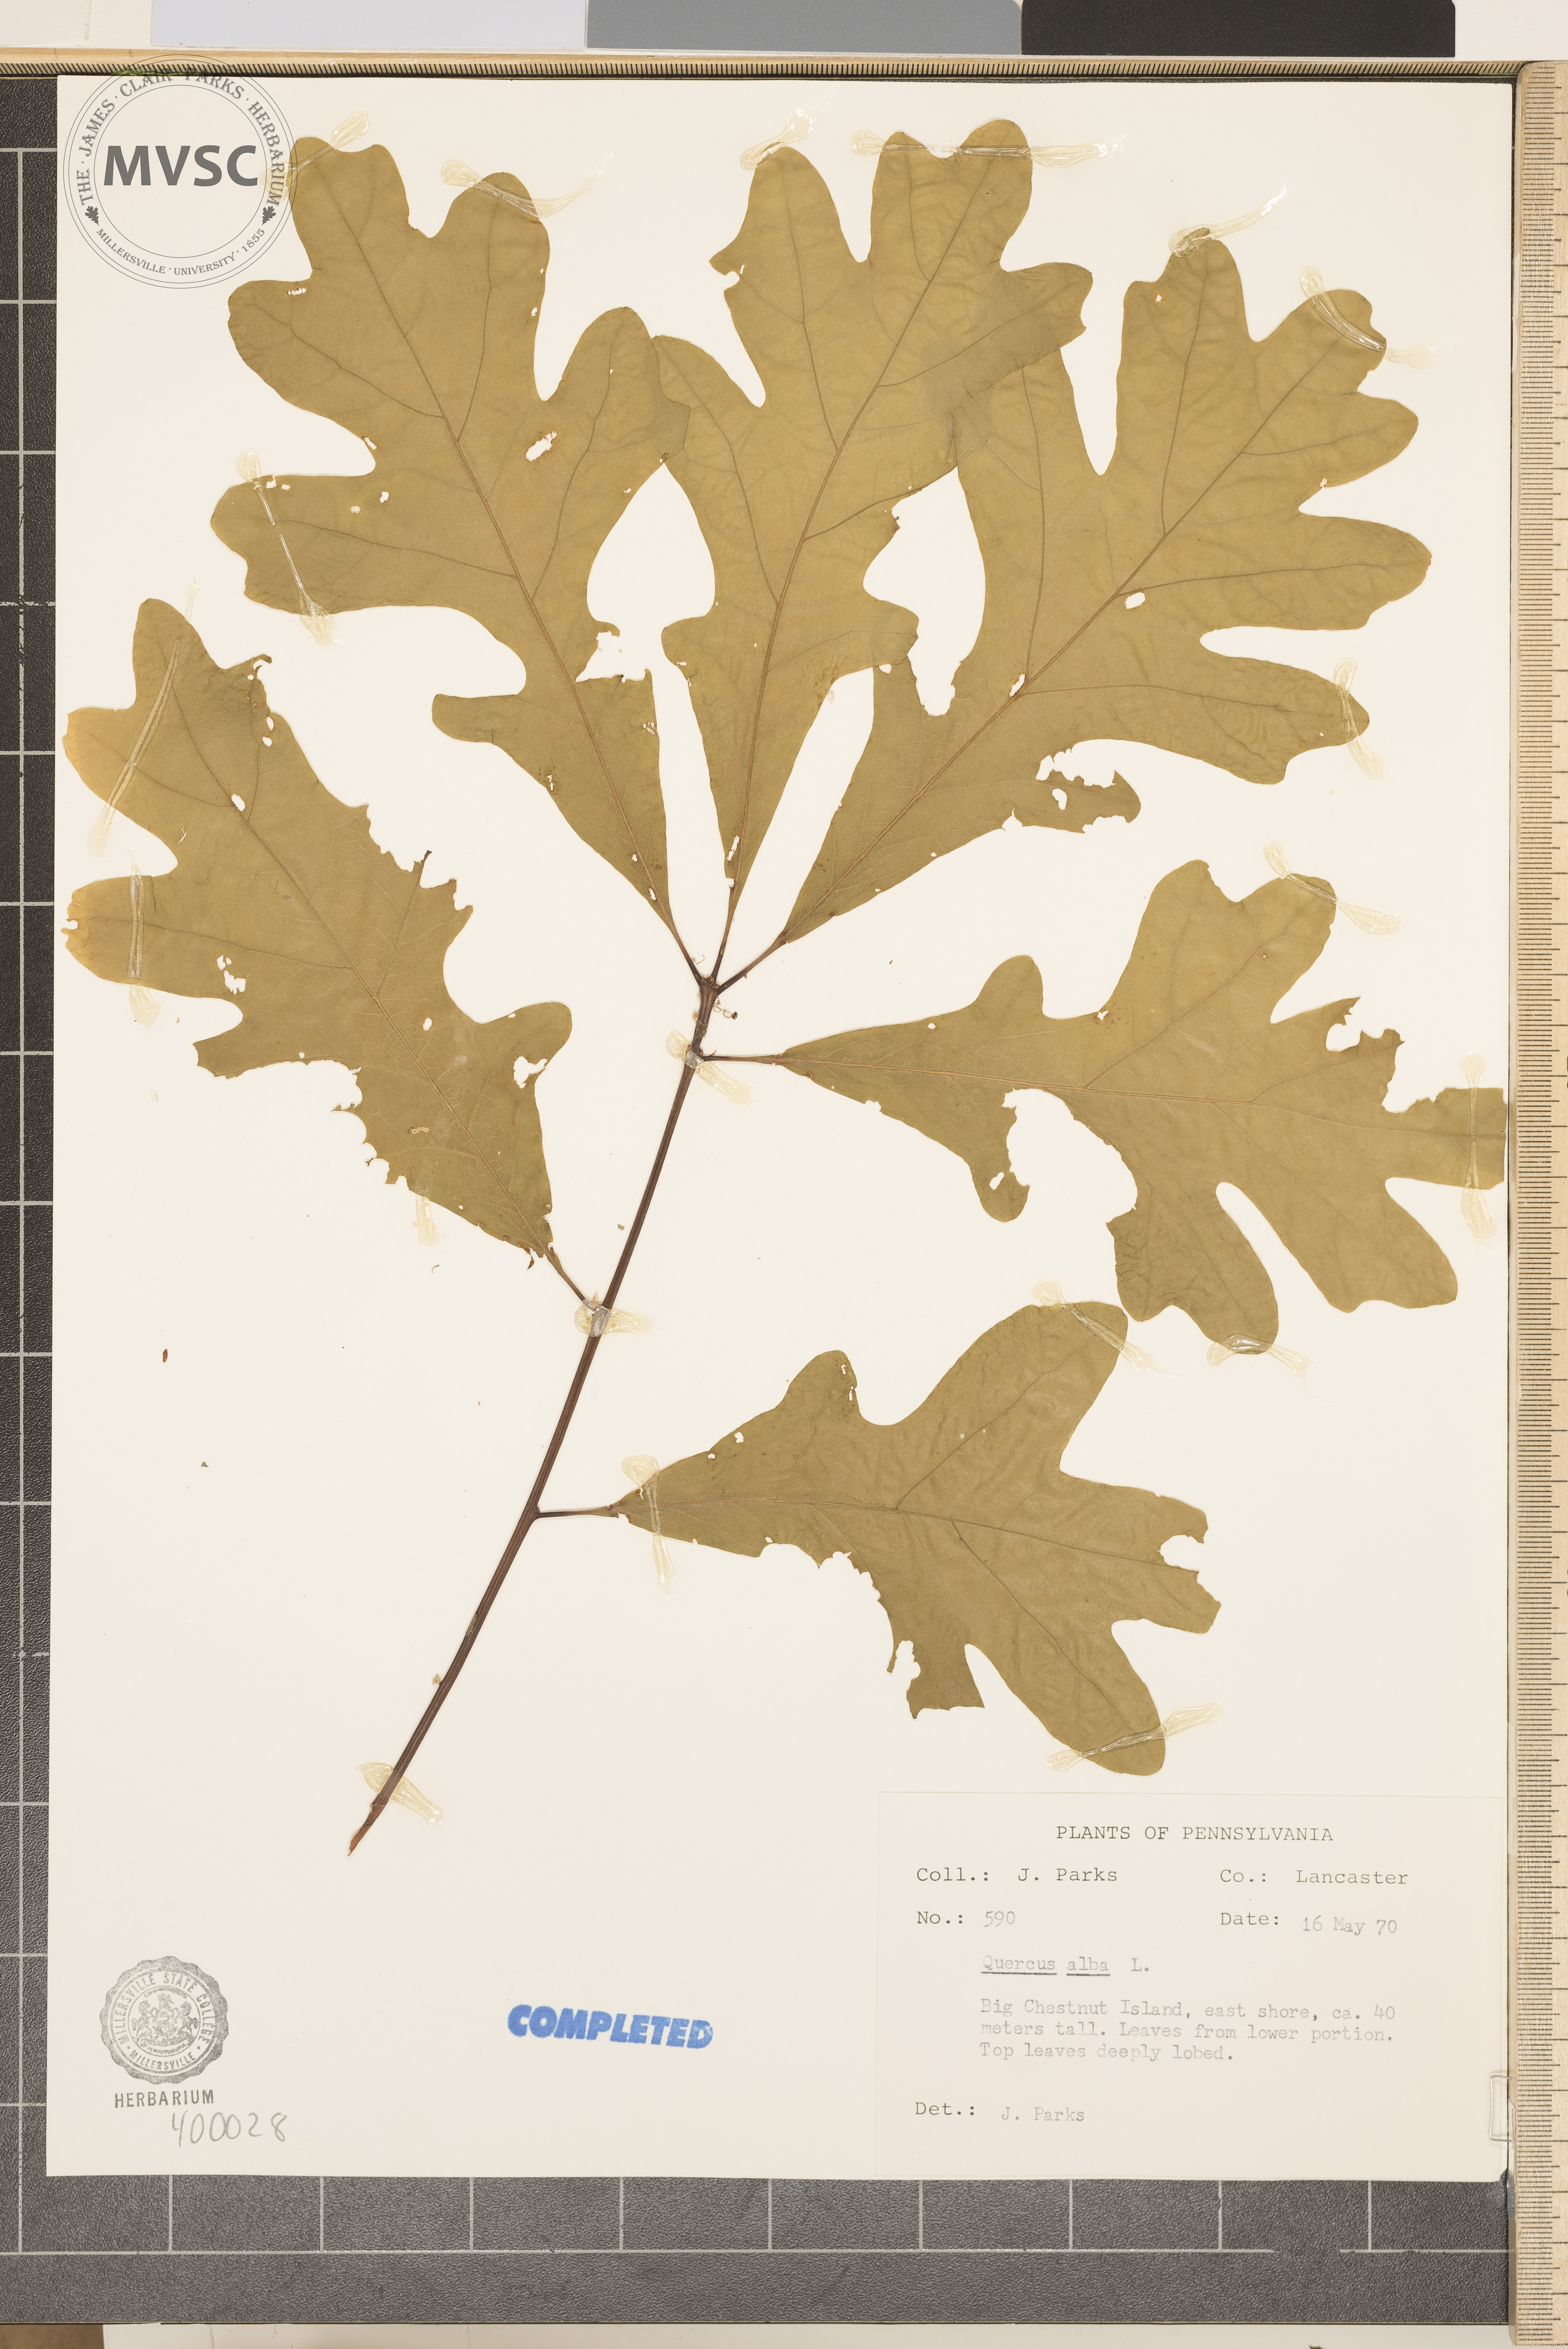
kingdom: Plantae
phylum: Tracheophyta
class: Magnoliopsida
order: Fagales
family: Fagaceae
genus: Quercus
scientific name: Quercus alba
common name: white oak
